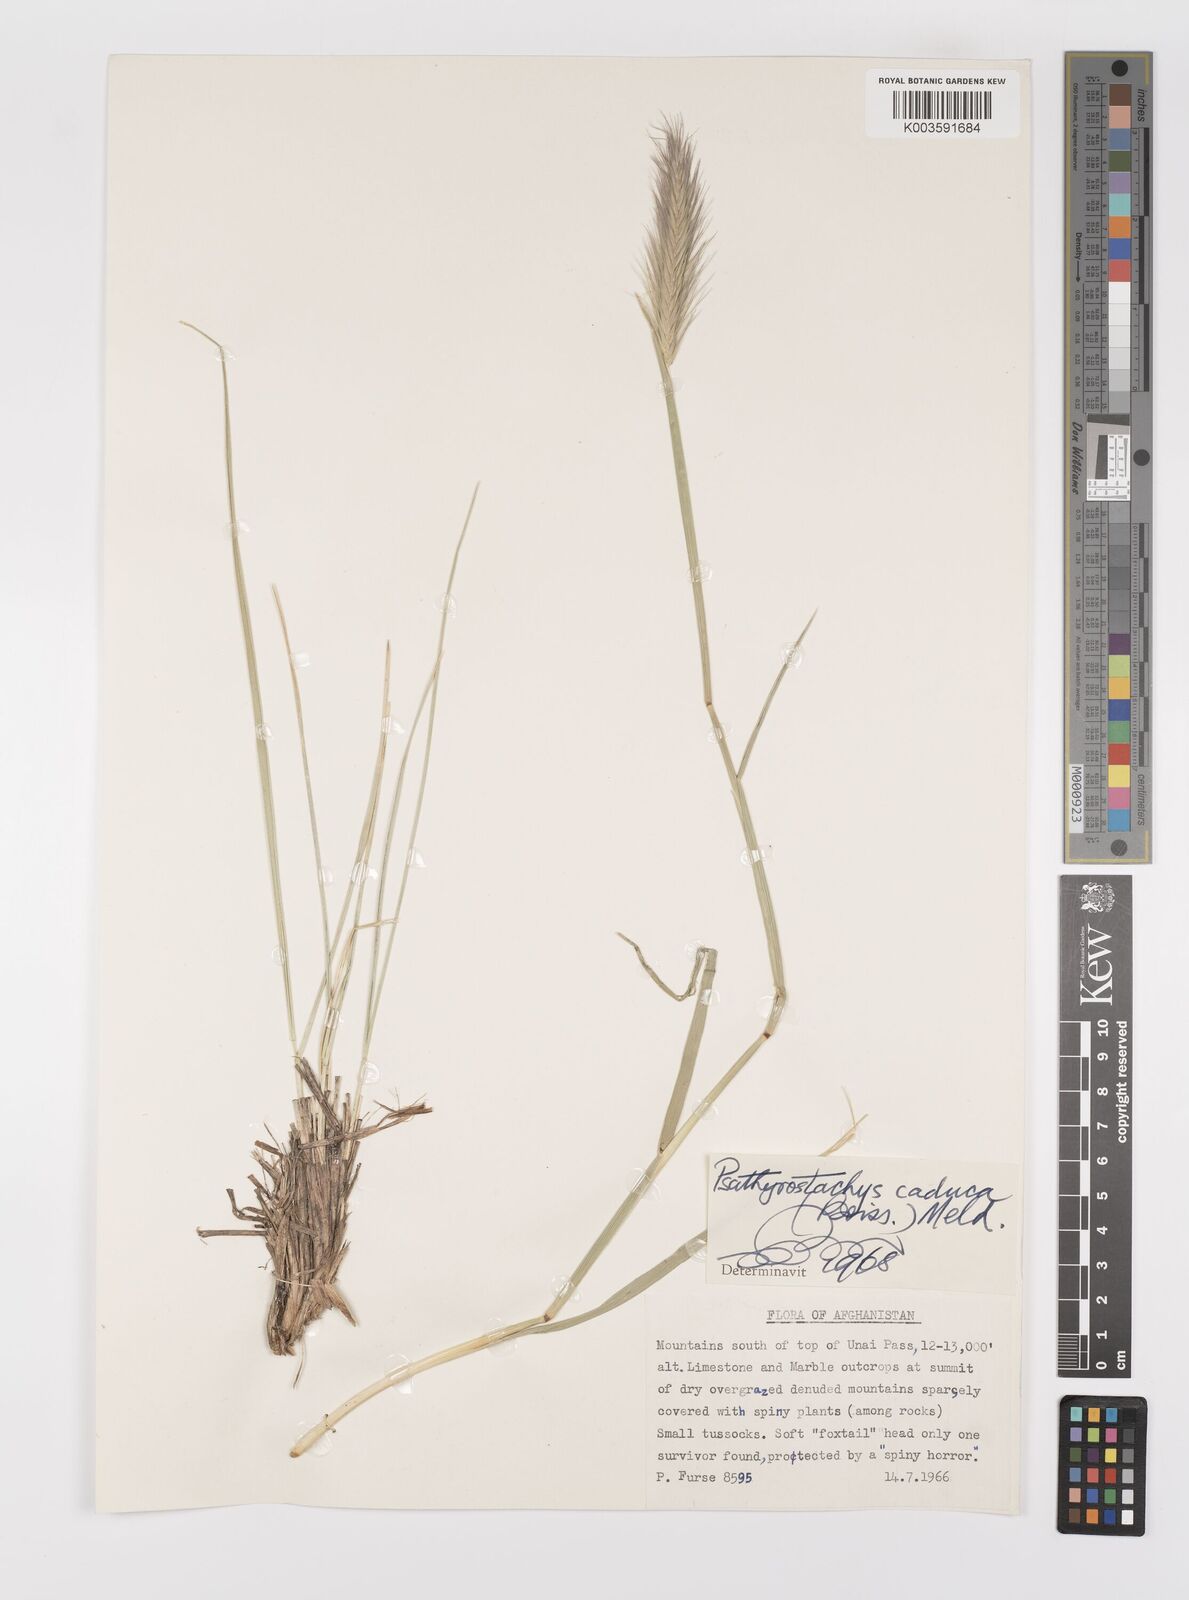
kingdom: Plantae
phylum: Tracheophyta
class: Liliopsida
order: Poales
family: Poaceae
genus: Psathyrostachys
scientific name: Psathyrostachys caduca
